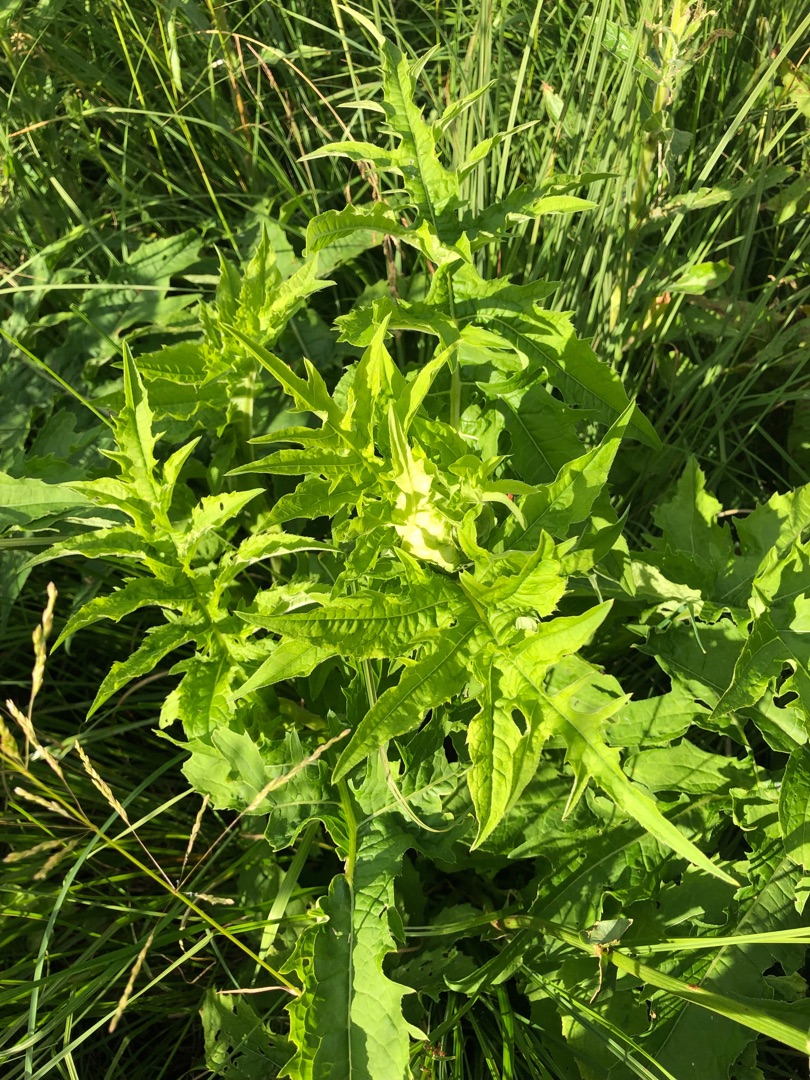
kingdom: Plantae
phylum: Tracheophyta
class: Magnoliopsida
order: Asterales
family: Asteraceae
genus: Cirsium
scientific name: Cirsium oleraceum
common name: Kål-tidsel
